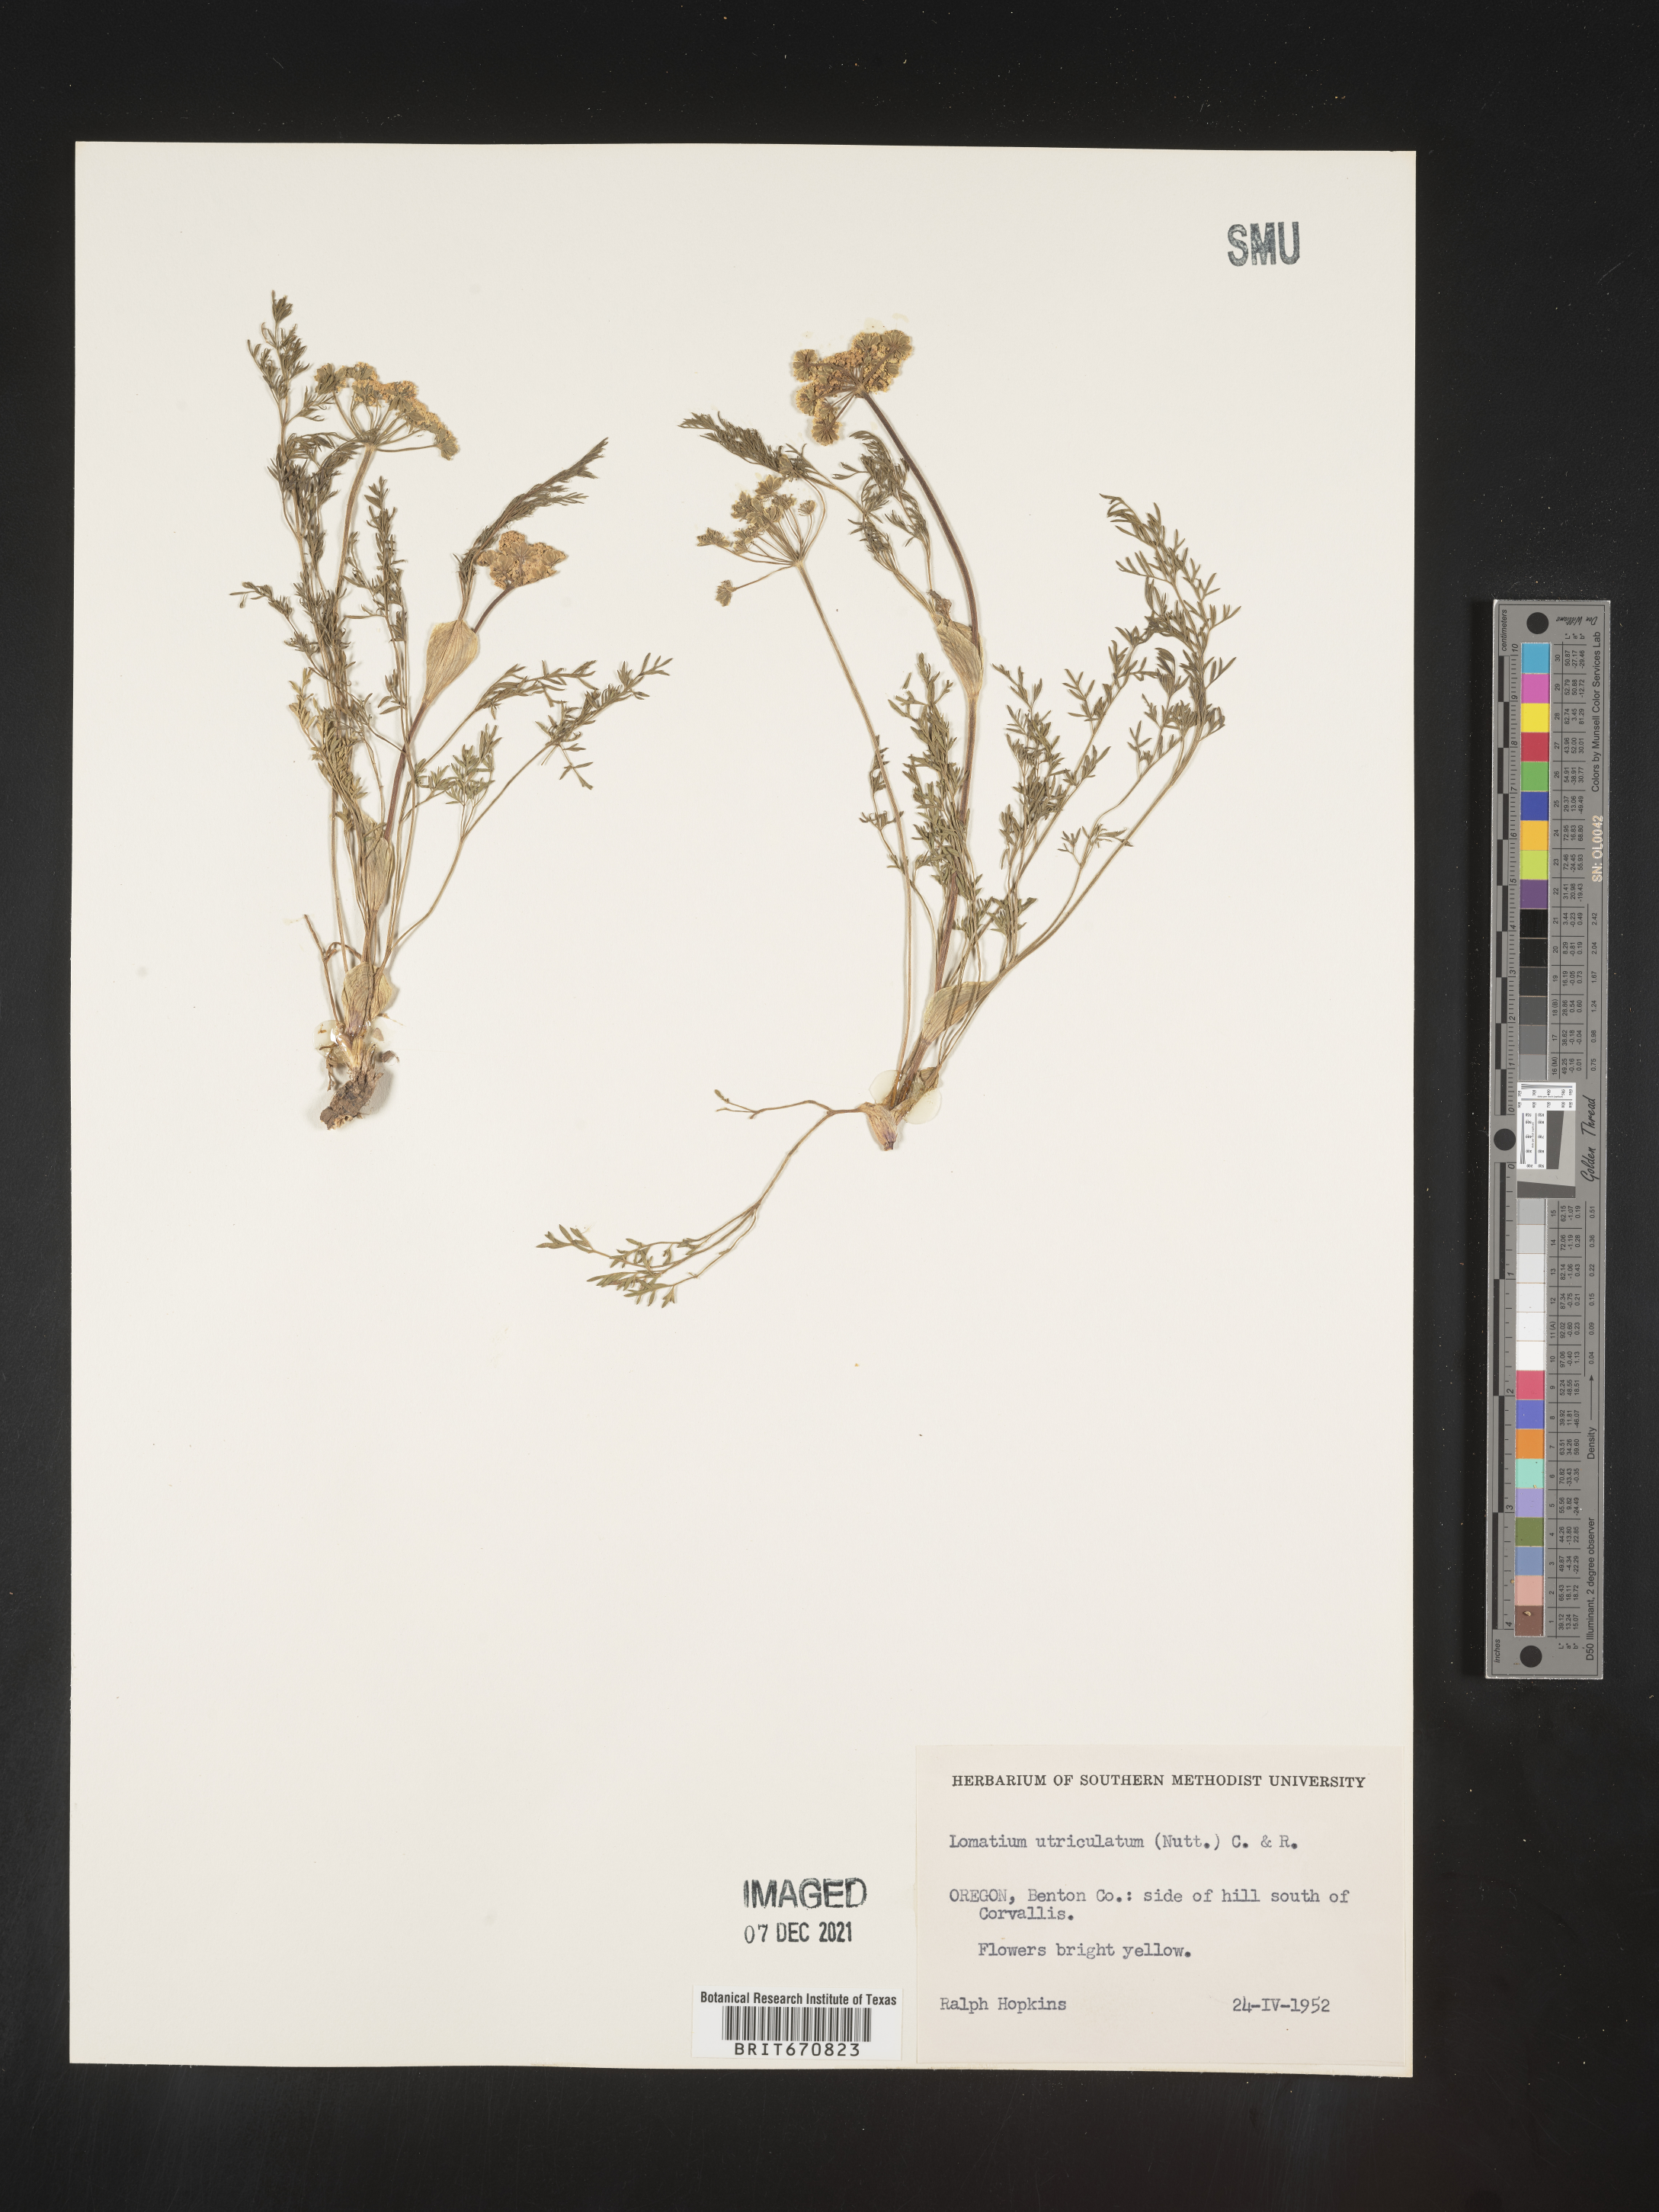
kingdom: Plantae
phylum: Tracheophyta
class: Magnoliopsida
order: Apiales
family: Apiaceae
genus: Lomatium
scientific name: Lomatium utriculatum
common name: Fine-leaf desert-parsley
